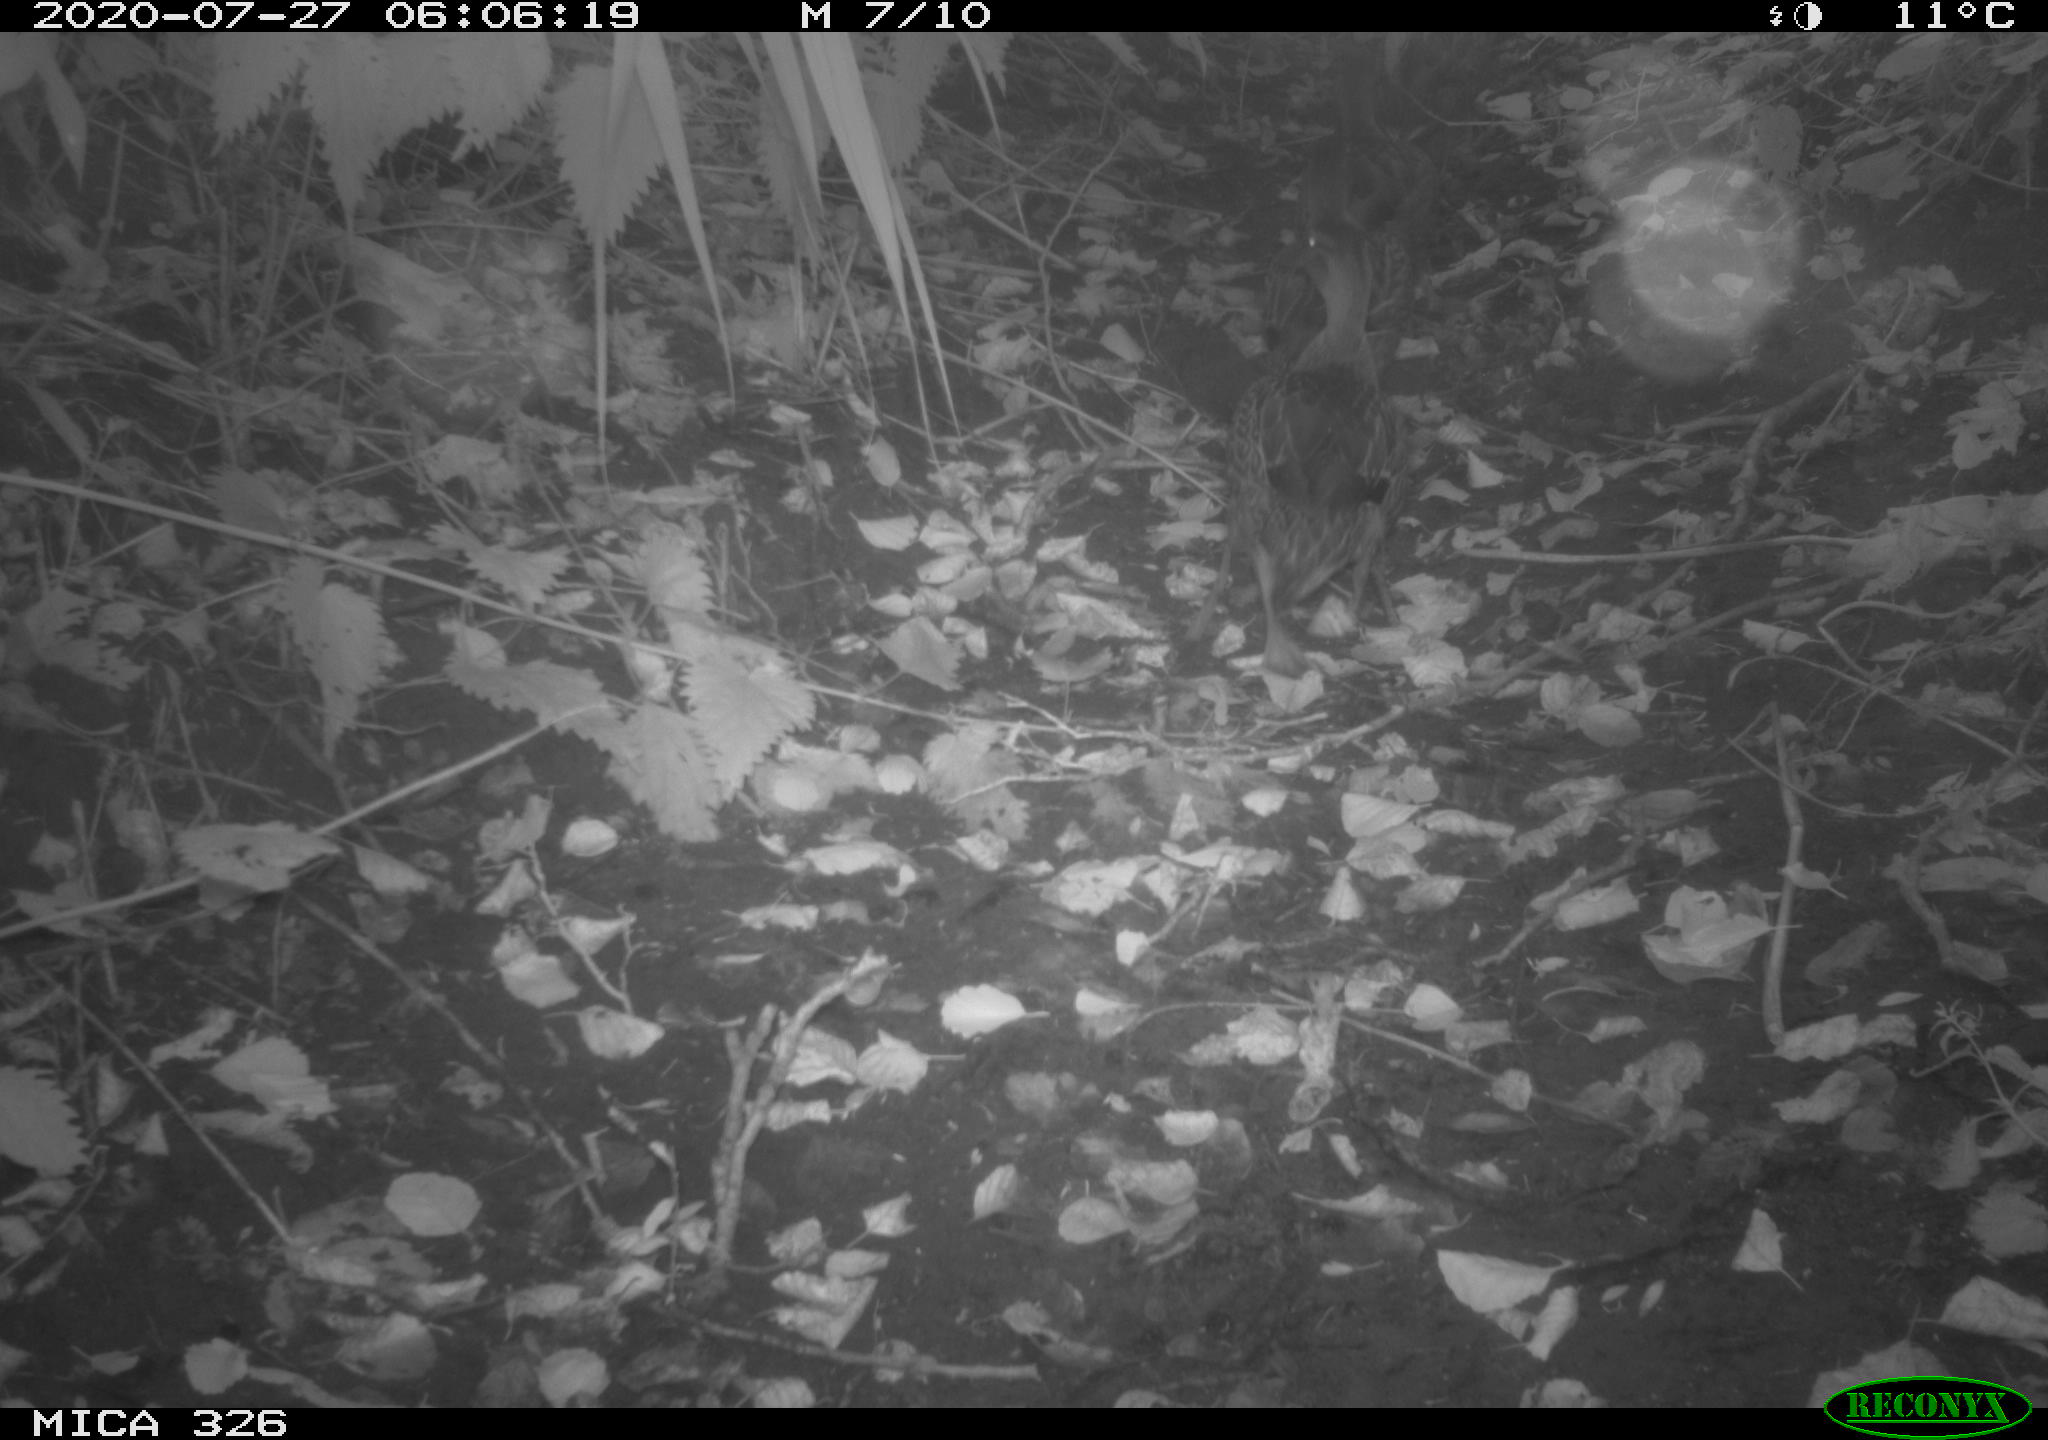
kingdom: Animalia
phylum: Chordata
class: Aves
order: Anseriformes
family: Anatidae
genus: Anas
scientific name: Anas platyrhynchos
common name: Mallard
